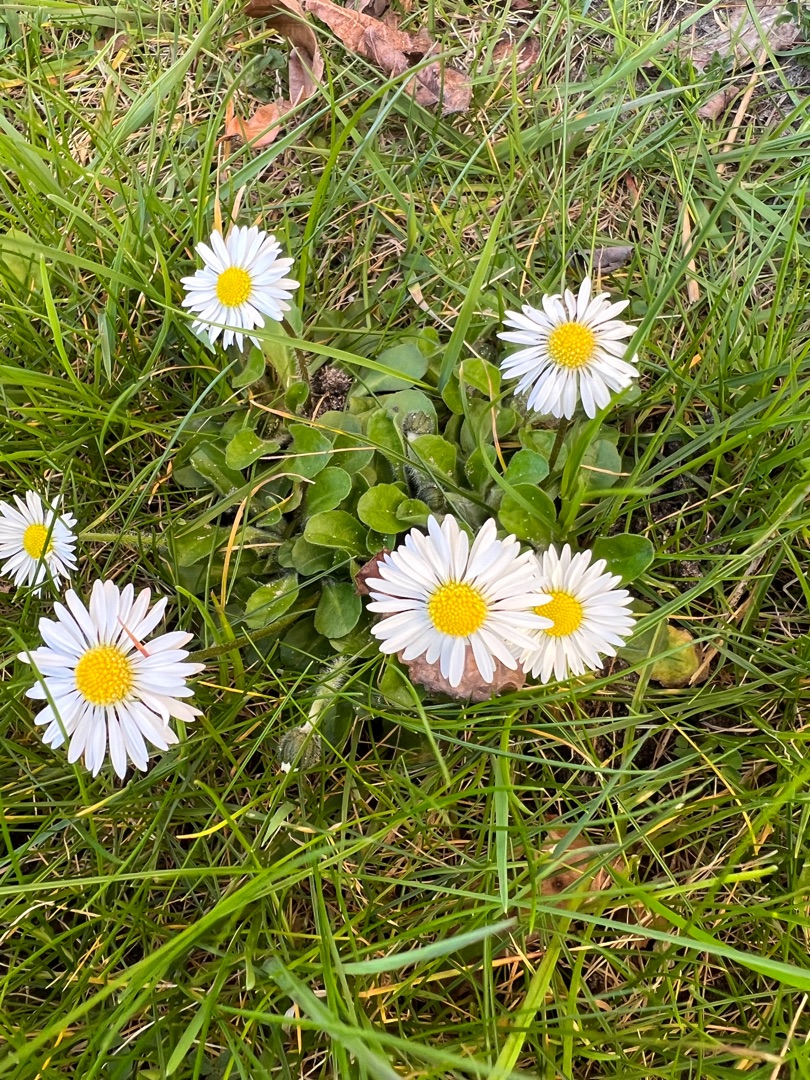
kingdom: Plantae
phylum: Tracheophyta
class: Magnoliopsida
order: Asterales
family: Asteraceae
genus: Bellis
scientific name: Bellis perennis
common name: Tusindfryd
